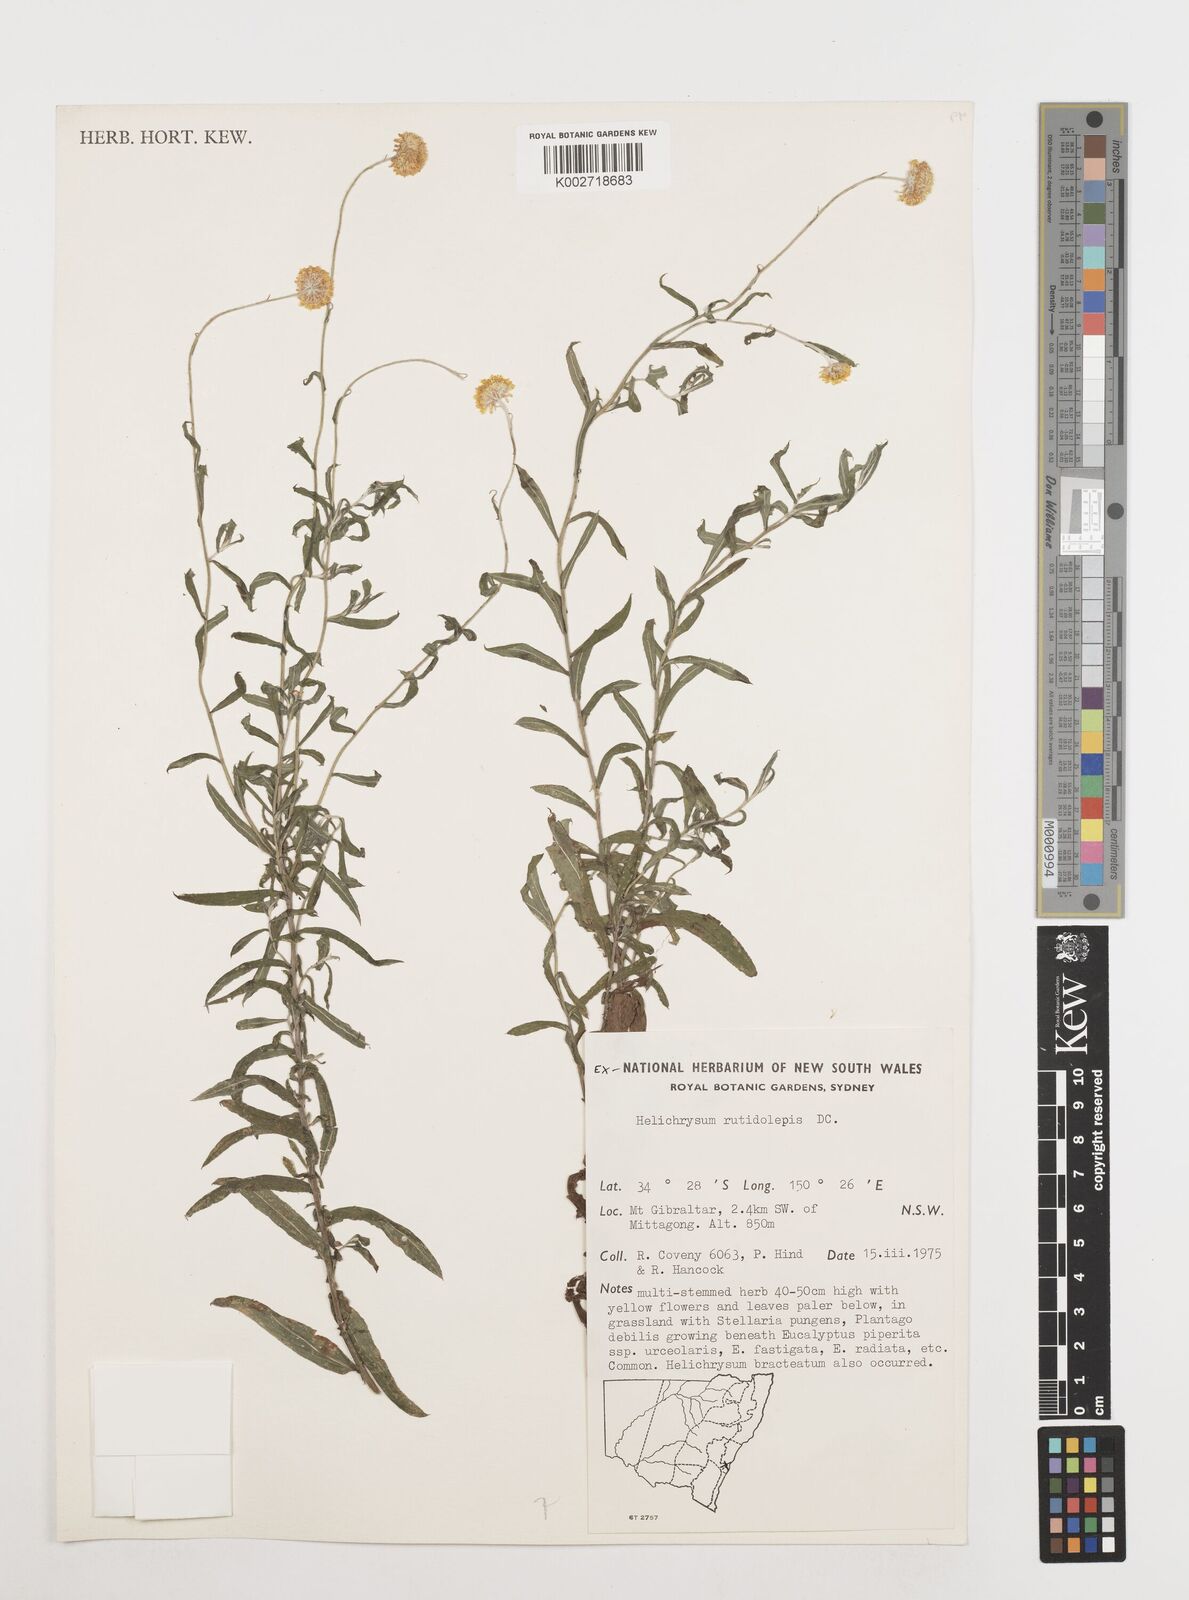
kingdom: Plantae
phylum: Tracheophyta
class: Magnoliopsida
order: Asterales
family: Asteraceae
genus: Coronidium
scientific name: Coronidium rutidolepis
